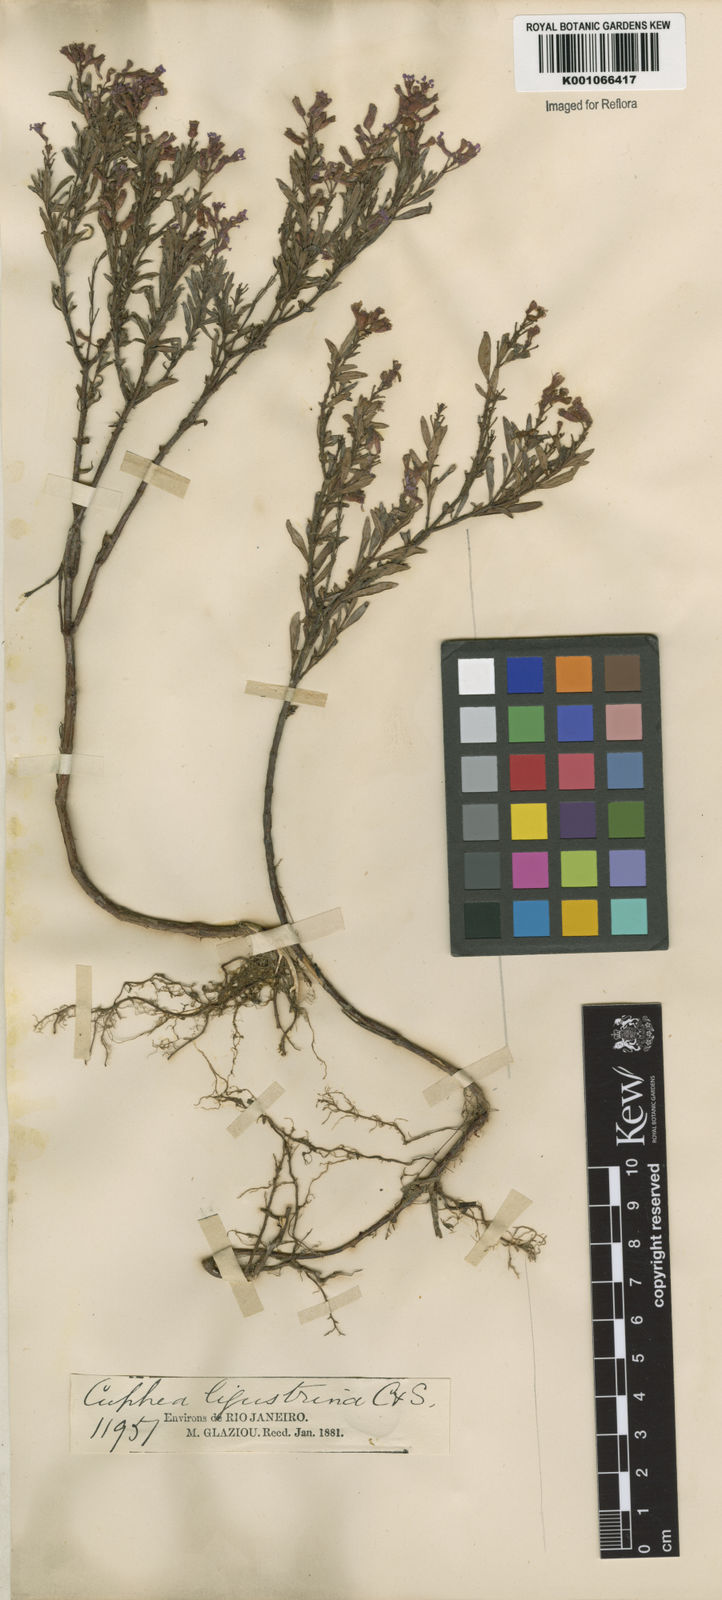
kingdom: Plantae
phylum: Tracheophyta
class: Magnoliopsida
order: Myrtales
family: Lythraceae
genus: Cuphea
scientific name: Cuphea fruticosa
